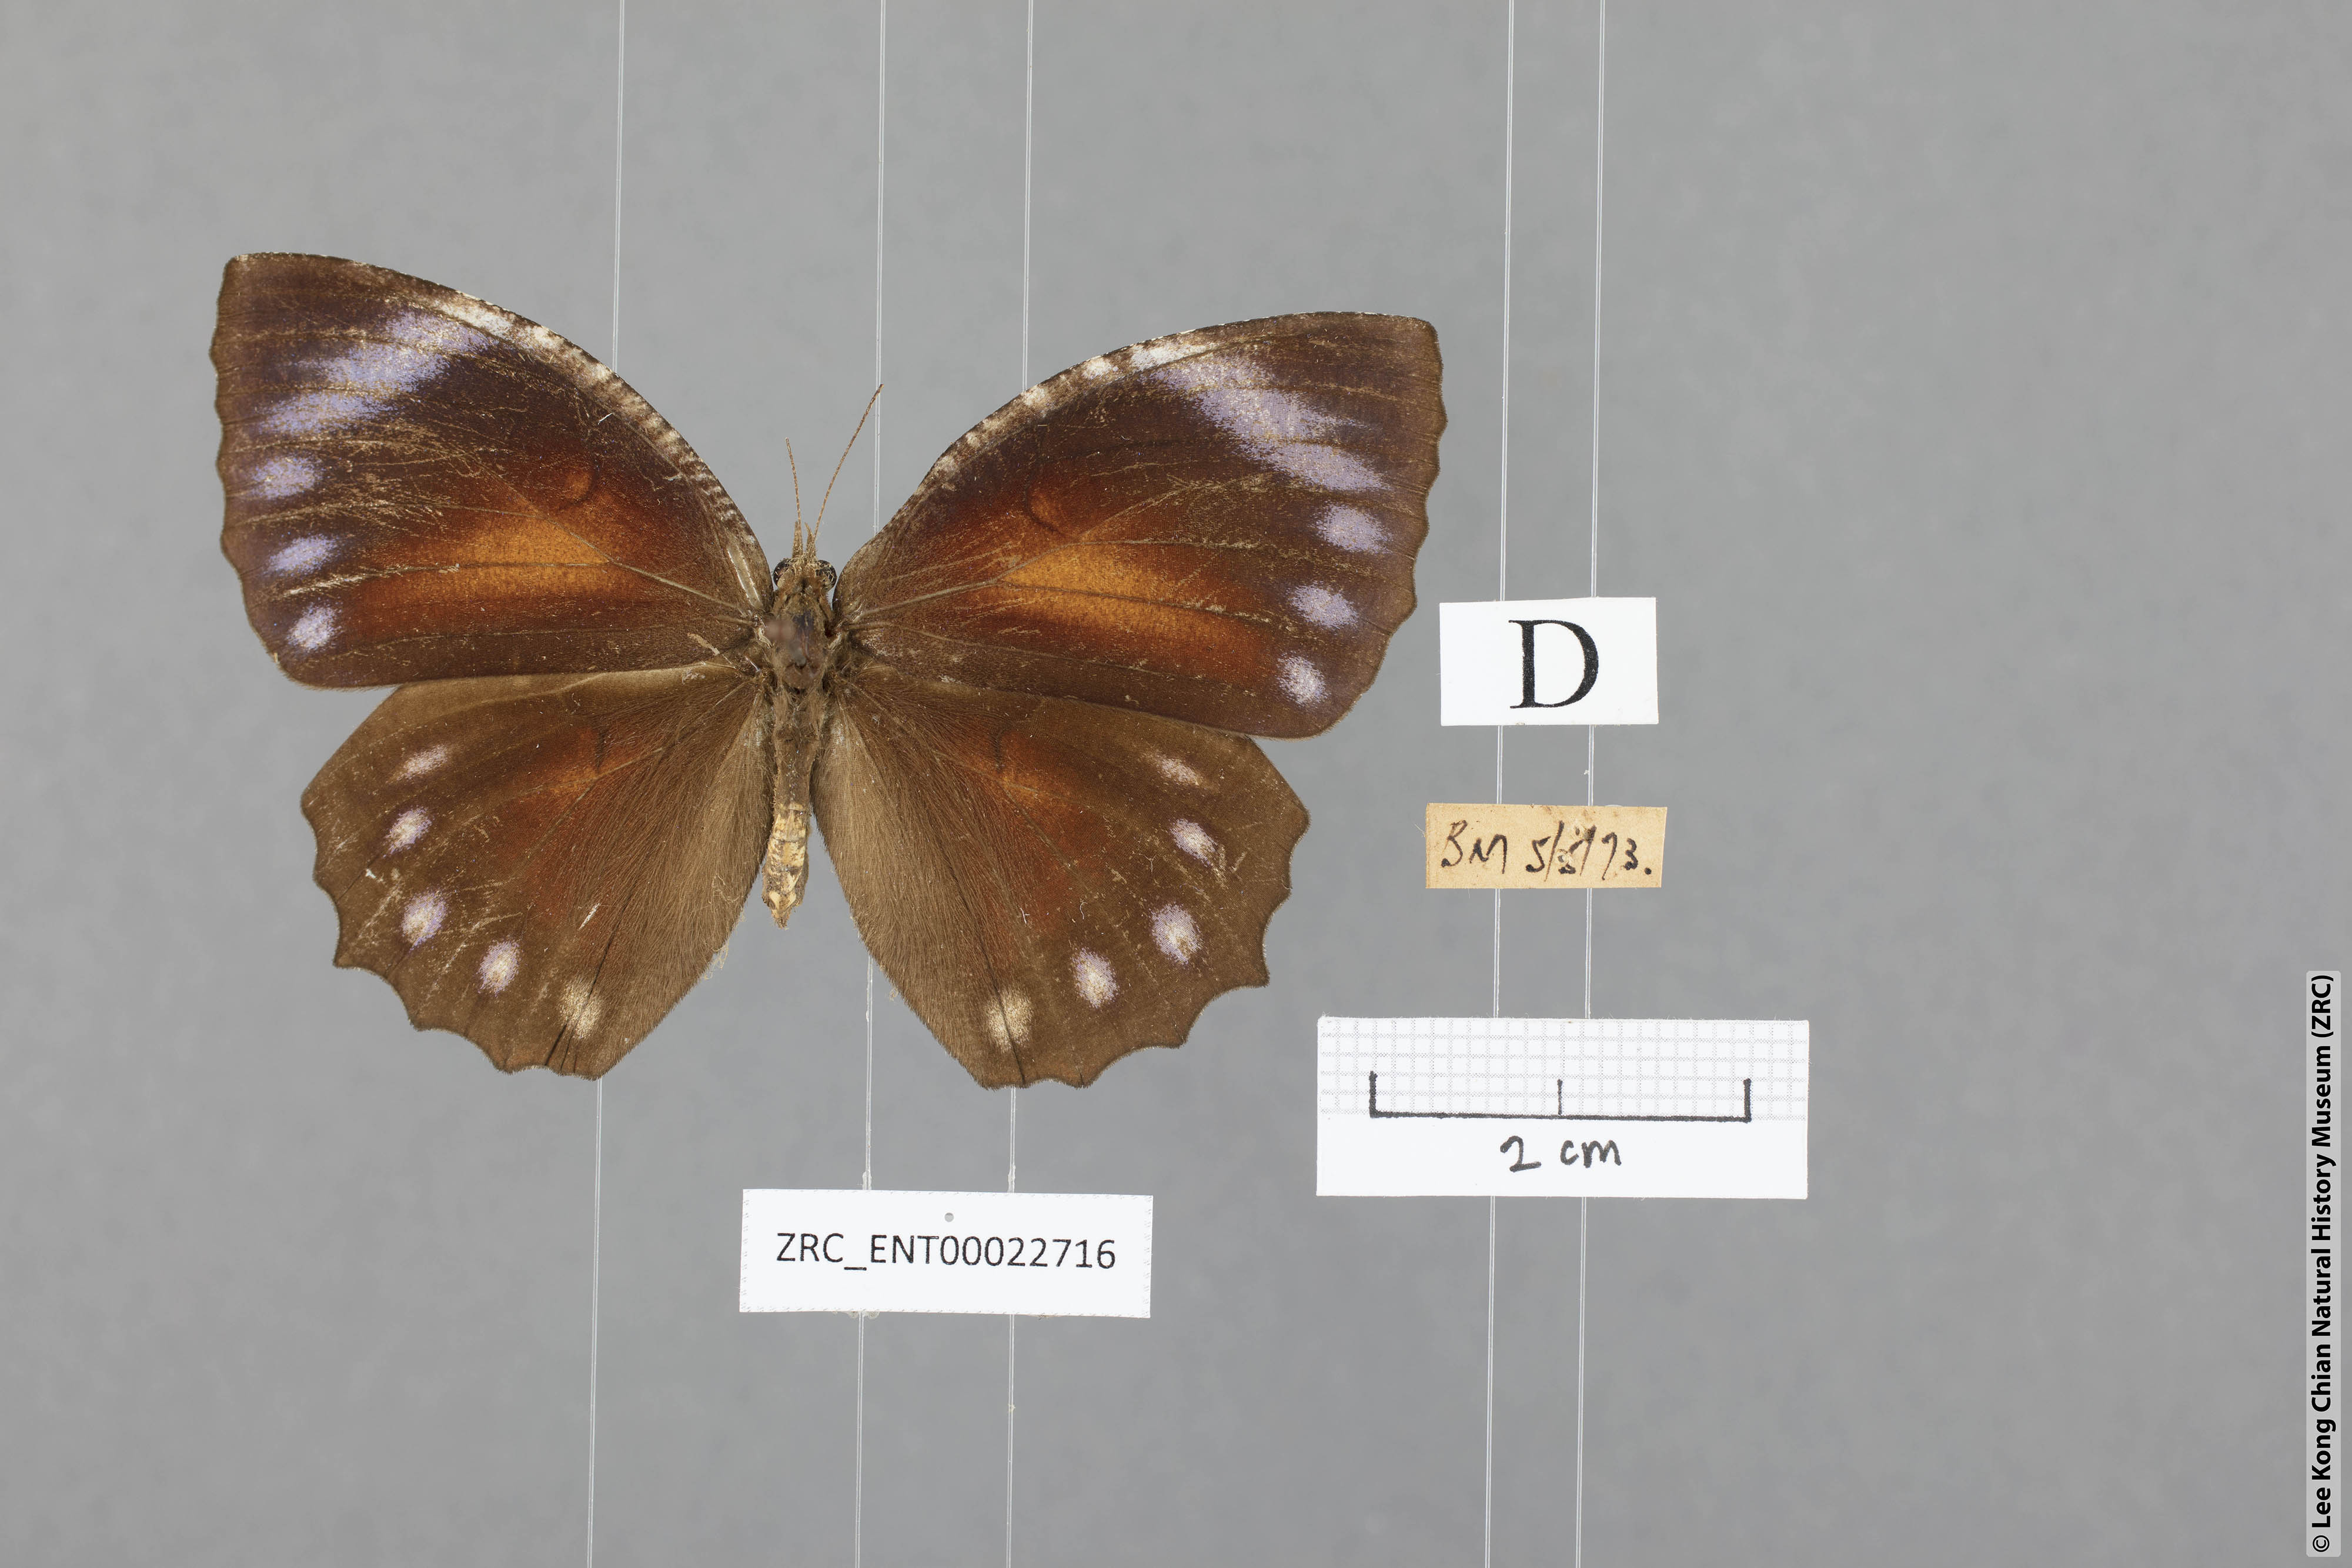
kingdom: Animalia
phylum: Arthropoda
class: Insecta
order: Lepidoptera
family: Nymphalidae
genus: Elymnias
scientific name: Elymnias hypermnestra
